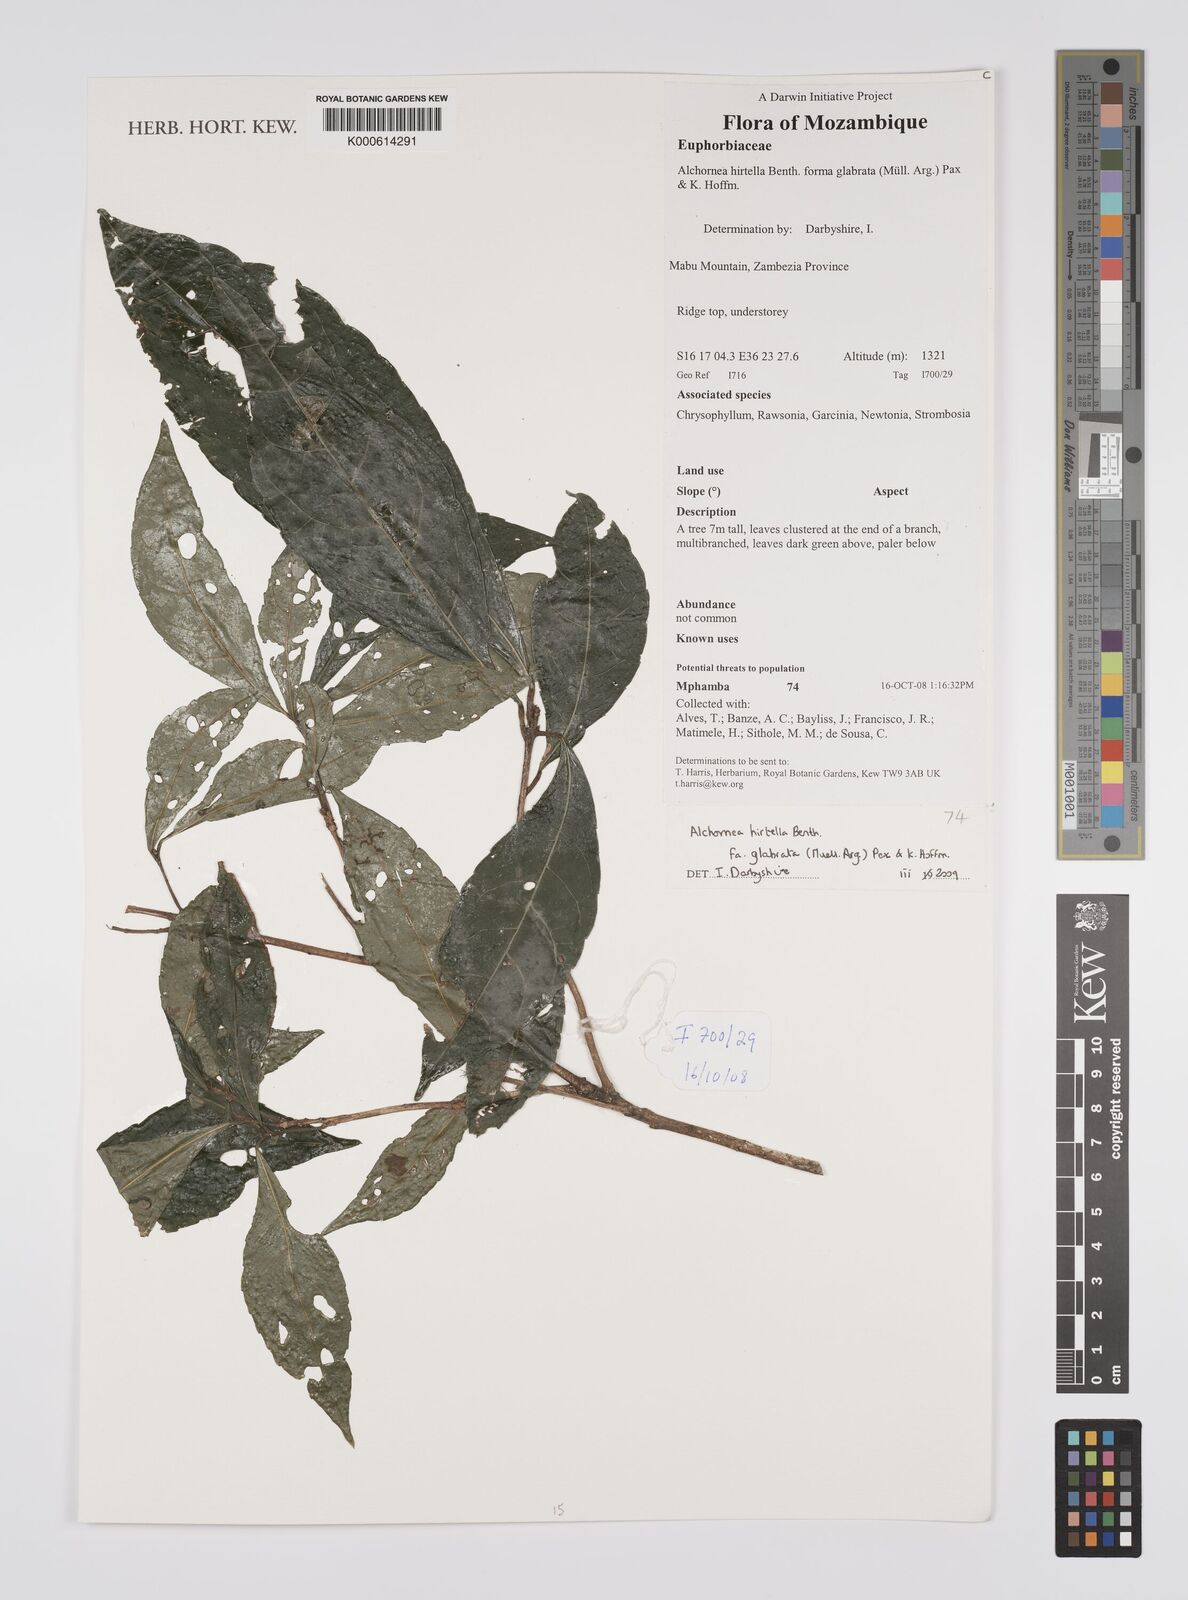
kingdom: Plantae
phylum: Tracheophyta
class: Magnoliopsida
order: Malpighiales
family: Euphorbiaceae
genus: Alchornea
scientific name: Alchornea hirtella
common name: Forest bead-string
